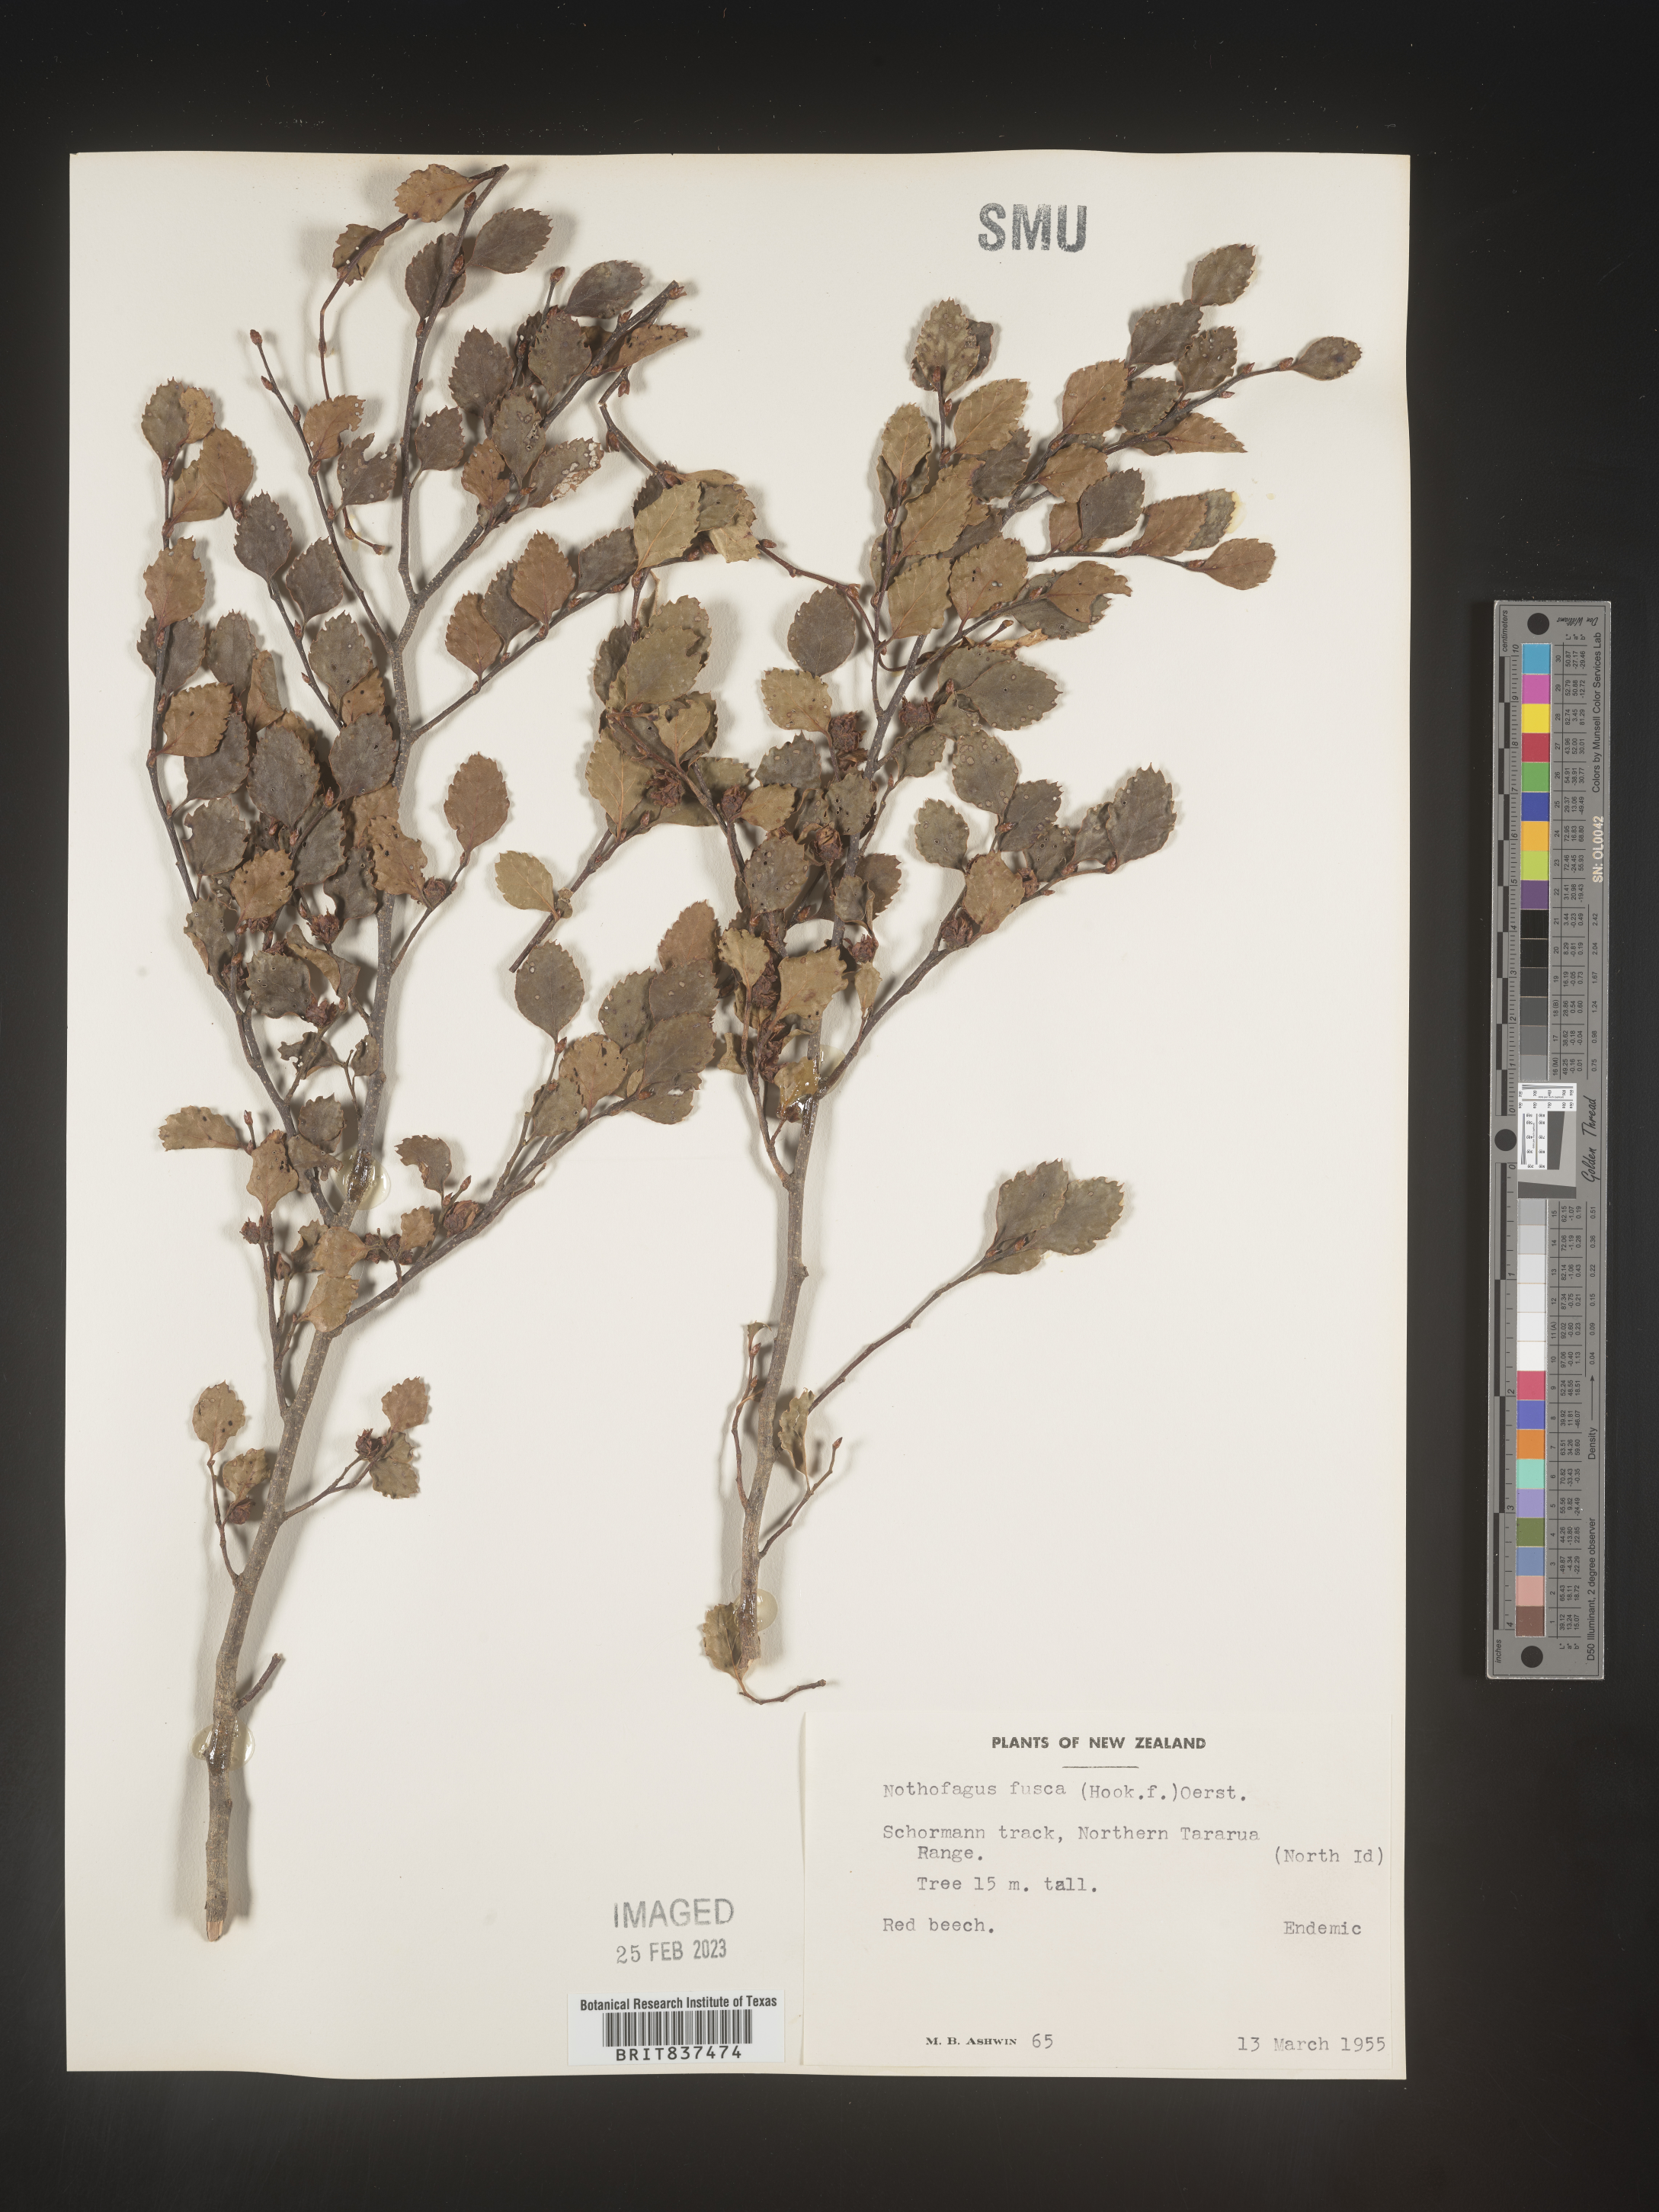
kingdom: Plantae
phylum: Tracheophyta
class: Magnoliopsida
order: Fagales
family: Nothofagaceae
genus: Nothofagus
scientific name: Nothofagus
